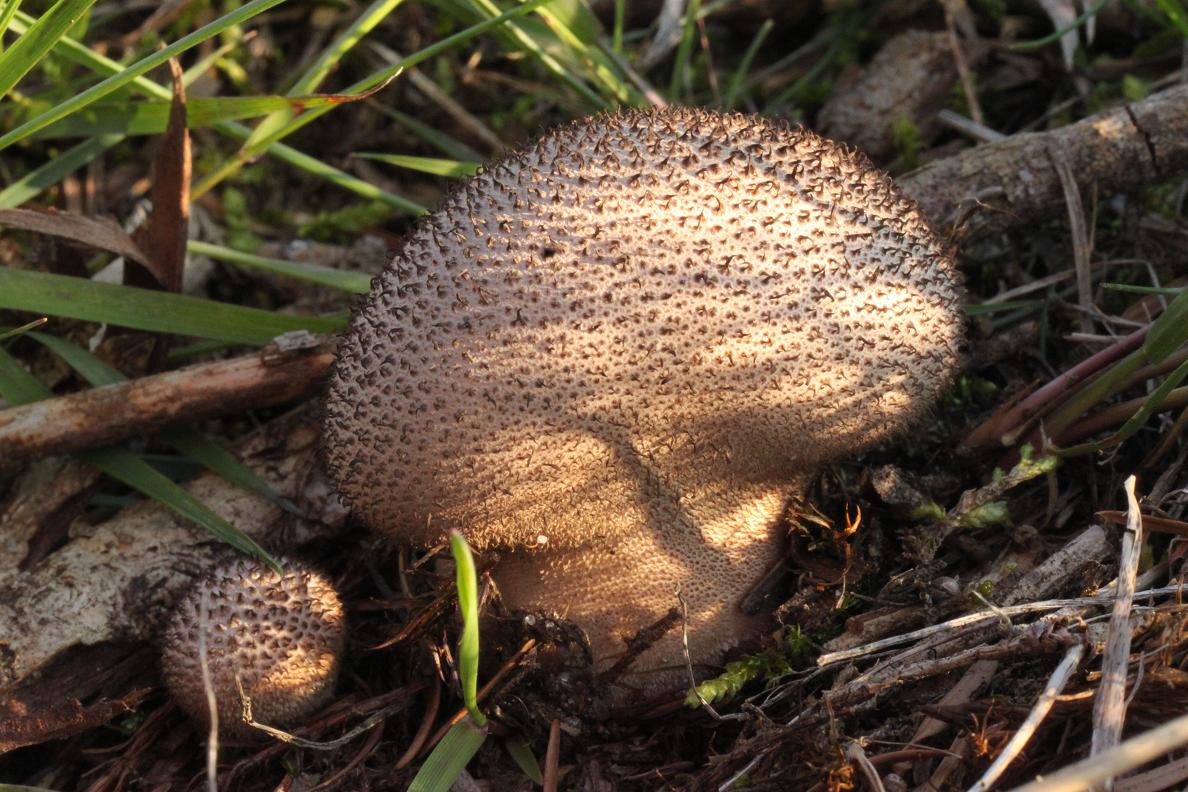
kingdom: Fungi
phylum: Basidiomycota
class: Agaricomycetes
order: Agaricales
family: Lycoperdaceae
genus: Lycoperdon
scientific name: Lycoperdon nigrescens
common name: sortagtig støvbold
